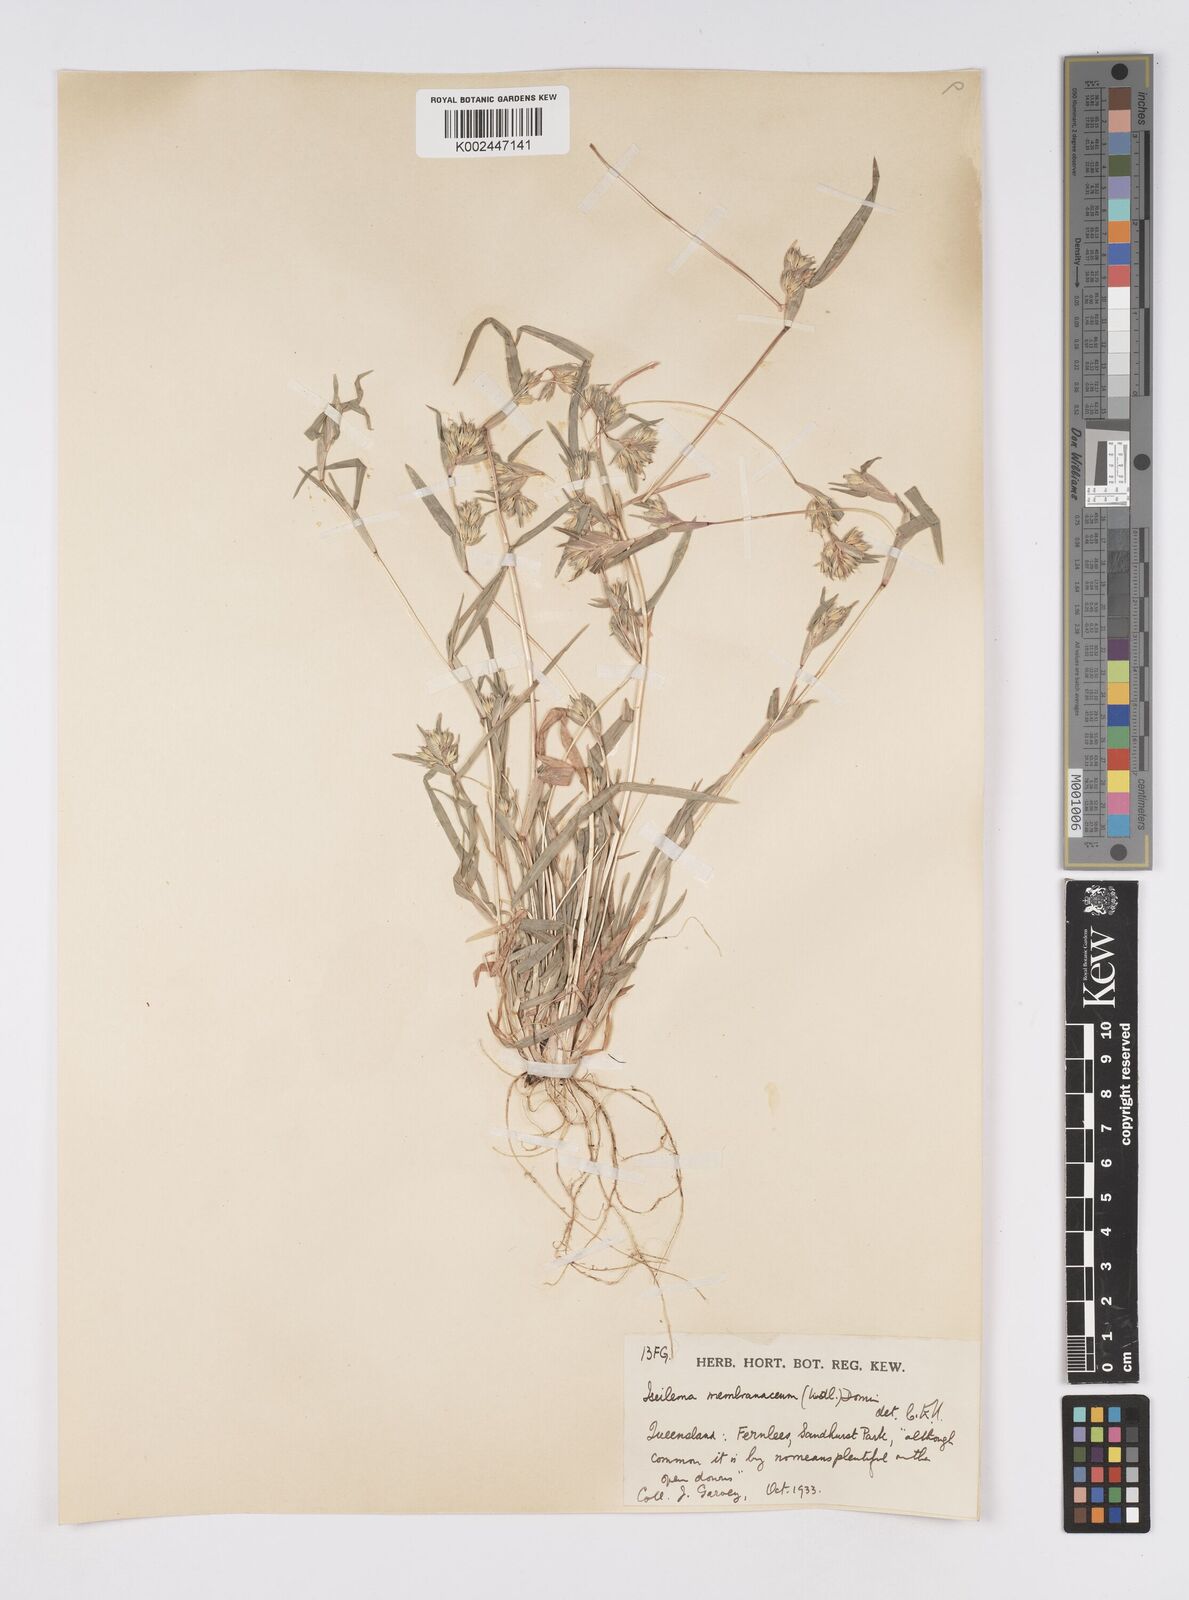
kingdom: Plantae
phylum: Tracheophyta
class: Liliopsida
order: Poales
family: Poaceae
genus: Iseilema
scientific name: Iseilema membranaceum
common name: Small flinders grass
